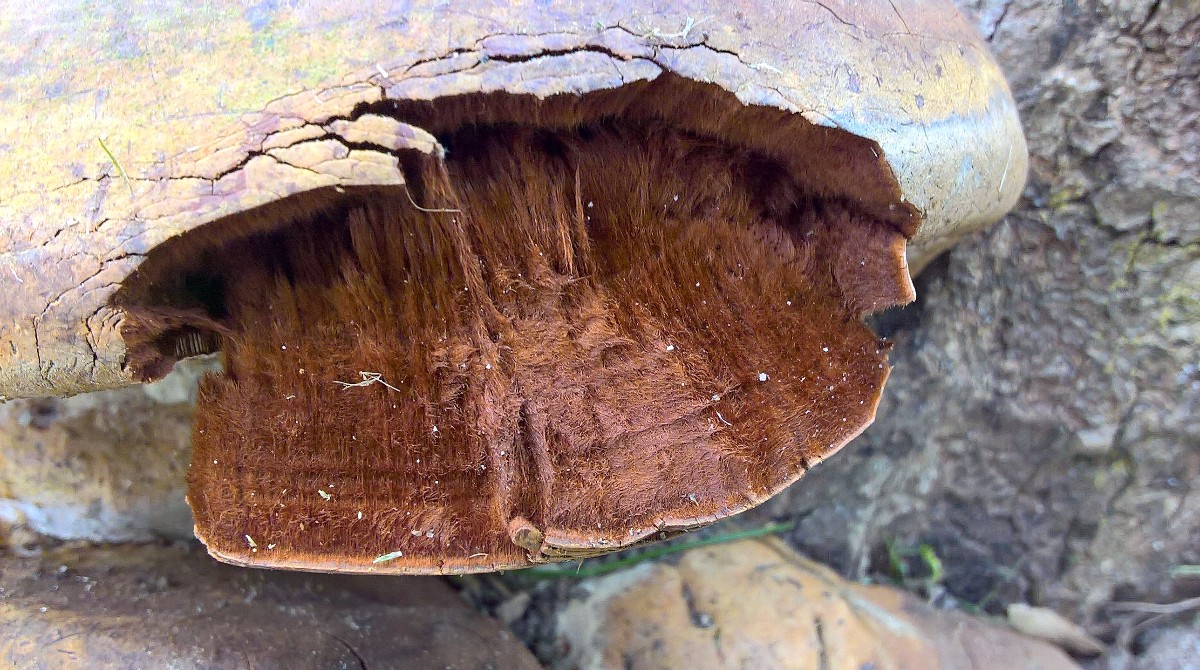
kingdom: Fungi
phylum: Basidiomycota
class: Agaricomycetes
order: Polyporales
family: Polyporaceae
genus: Ganoderma
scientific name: Ganoderma adspersum
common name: grov lakporesvamp
